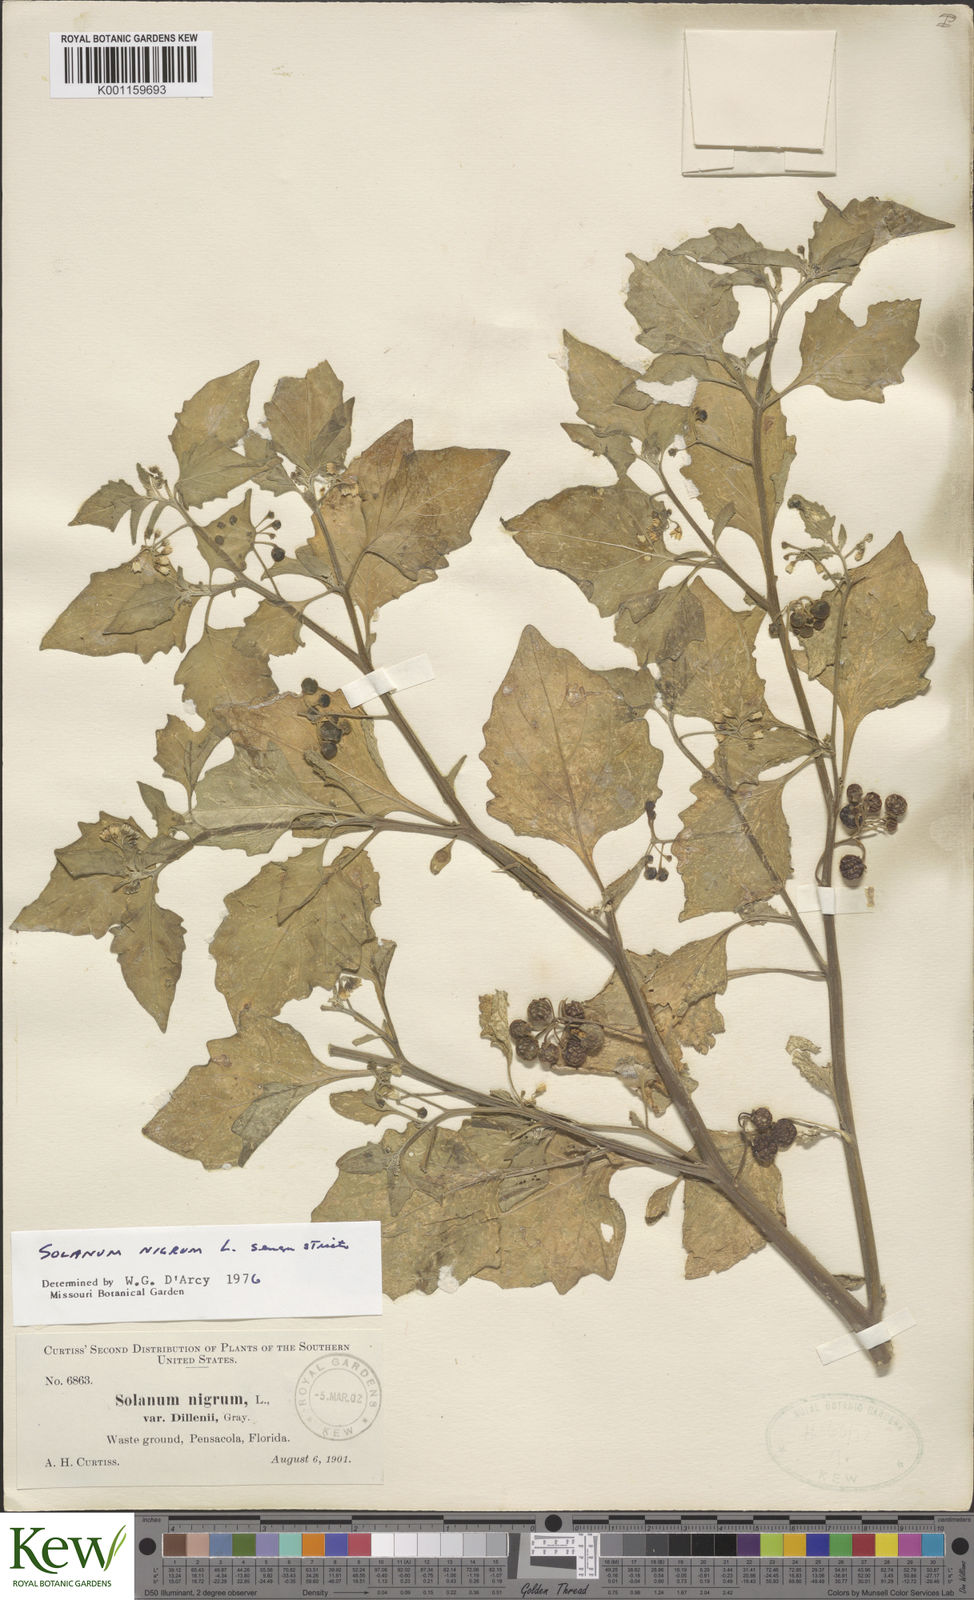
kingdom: Plantae
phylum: Tracheophyta
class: Magnoliopsida
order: Solanales
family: Solanaceae
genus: Solanum
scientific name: Solanum nigrum
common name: Black nightshade
